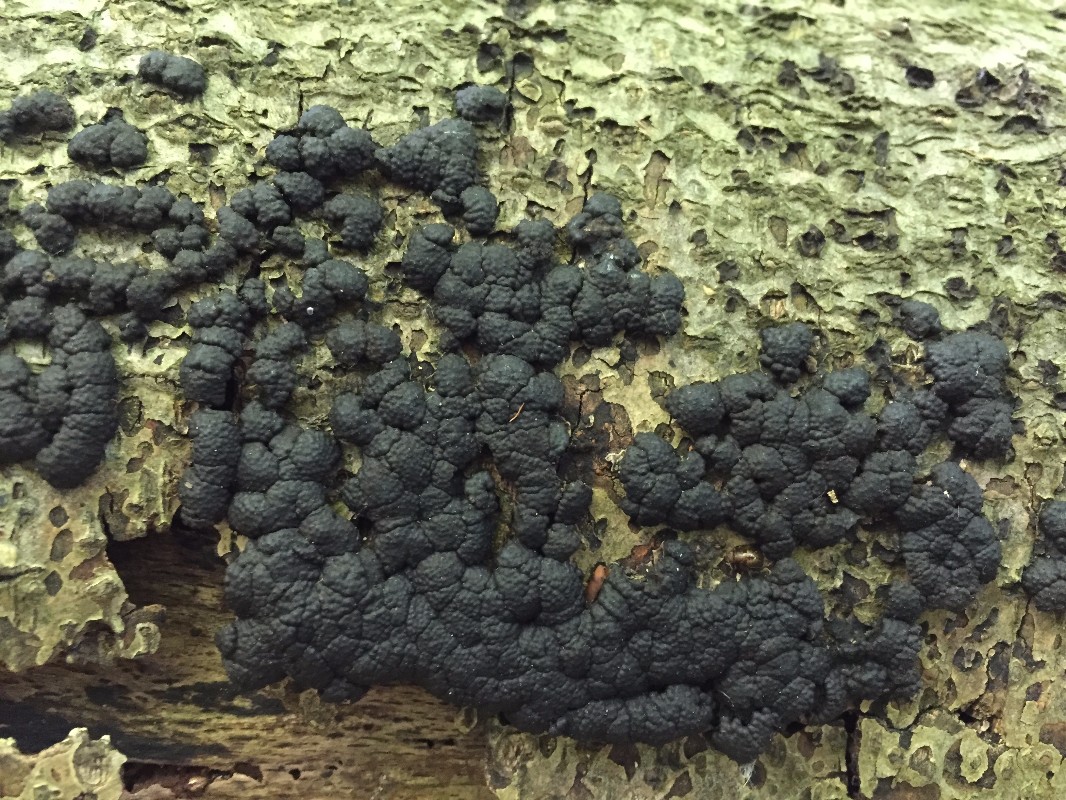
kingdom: Fungi
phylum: Ascomycota
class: Sordariomycetes
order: Xylariales
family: Hypoxylaceae
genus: Jackrogersella
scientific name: Jackrogersella cohaerens
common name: sammenflydende kulbær
